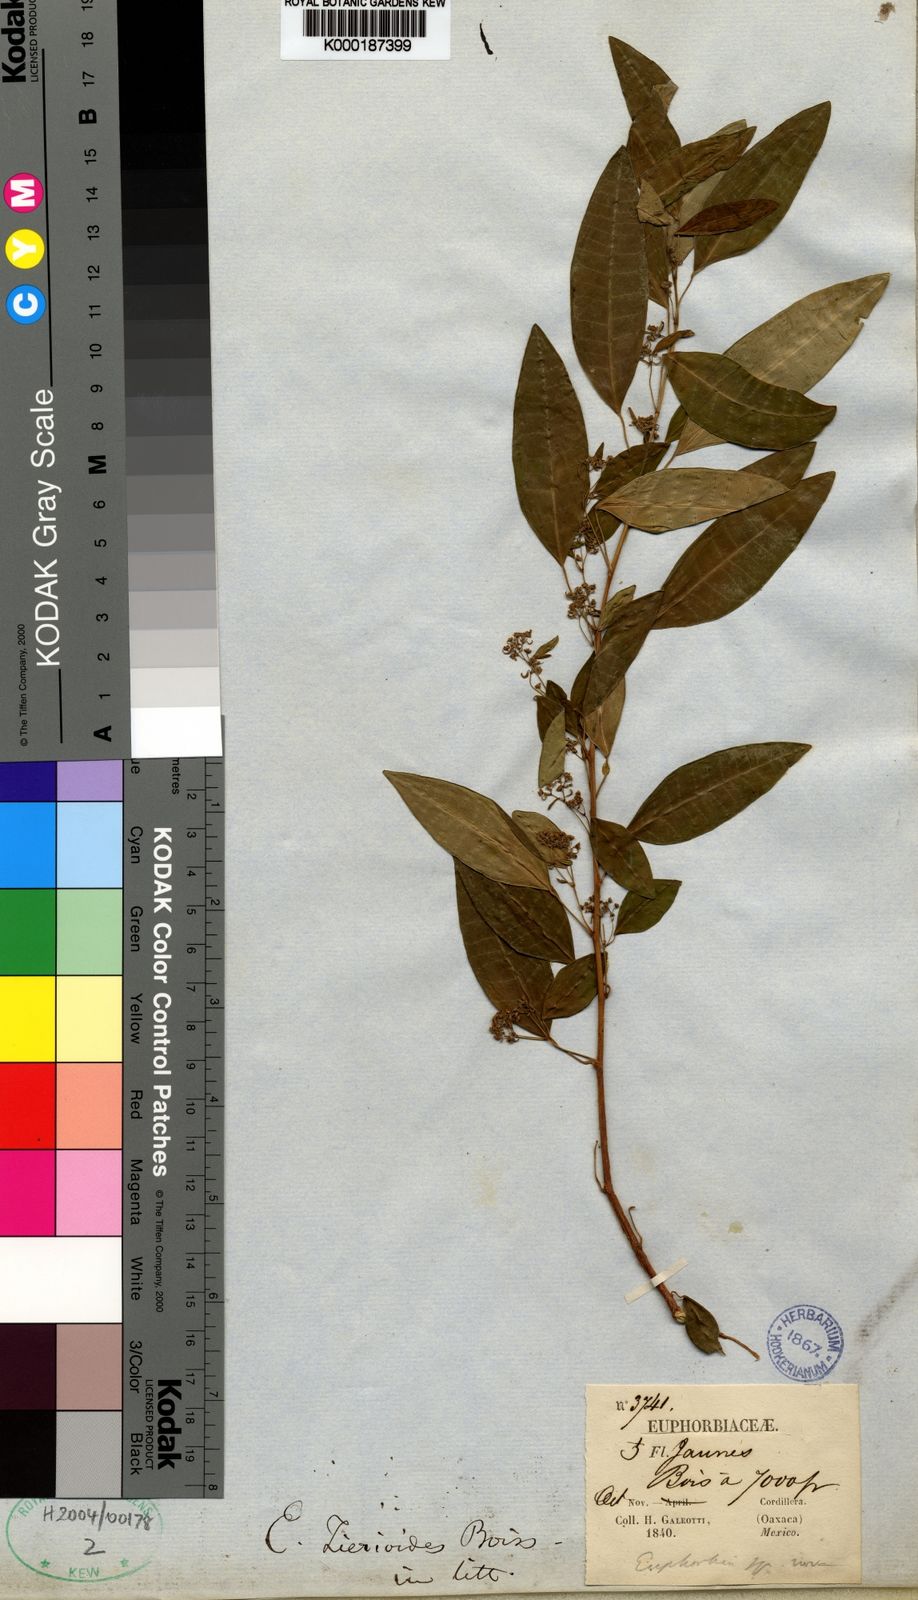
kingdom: Plantae
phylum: Tracheophyta
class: Magnoliopsida
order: Malpighiales
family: Euphorbiaceae
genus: Euphorbia
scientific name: Euphorbia
